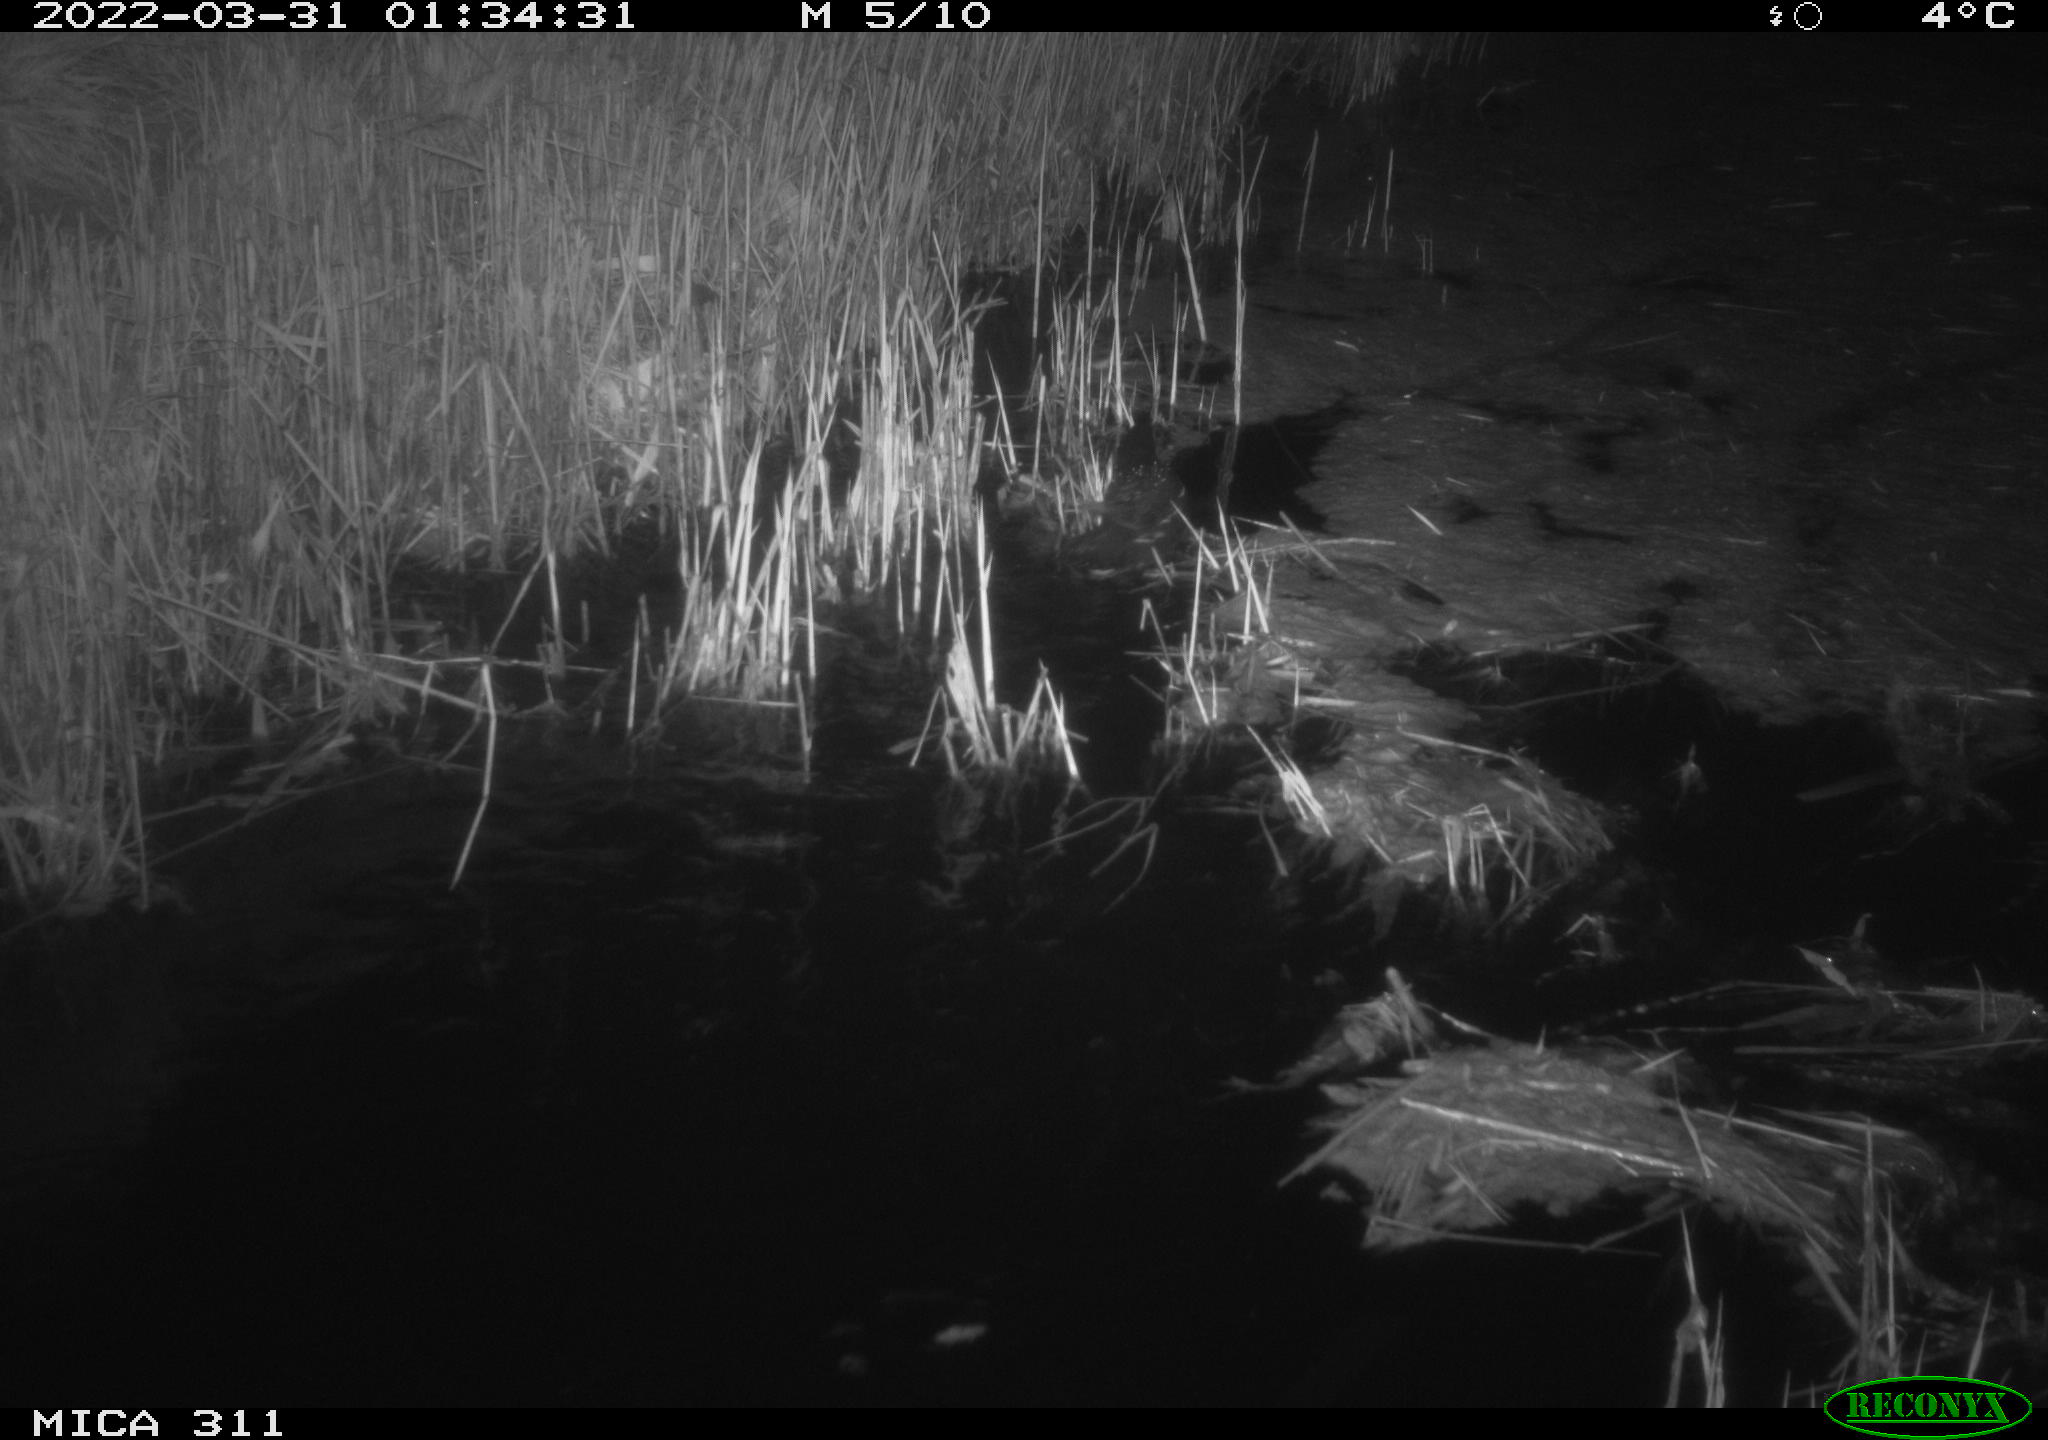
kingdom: Animalia
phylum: Chordata
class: Aves
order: Gruiformes
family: Rallidae
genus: Gallinula
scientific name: Gallinula chloropus
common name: Common moorhen
